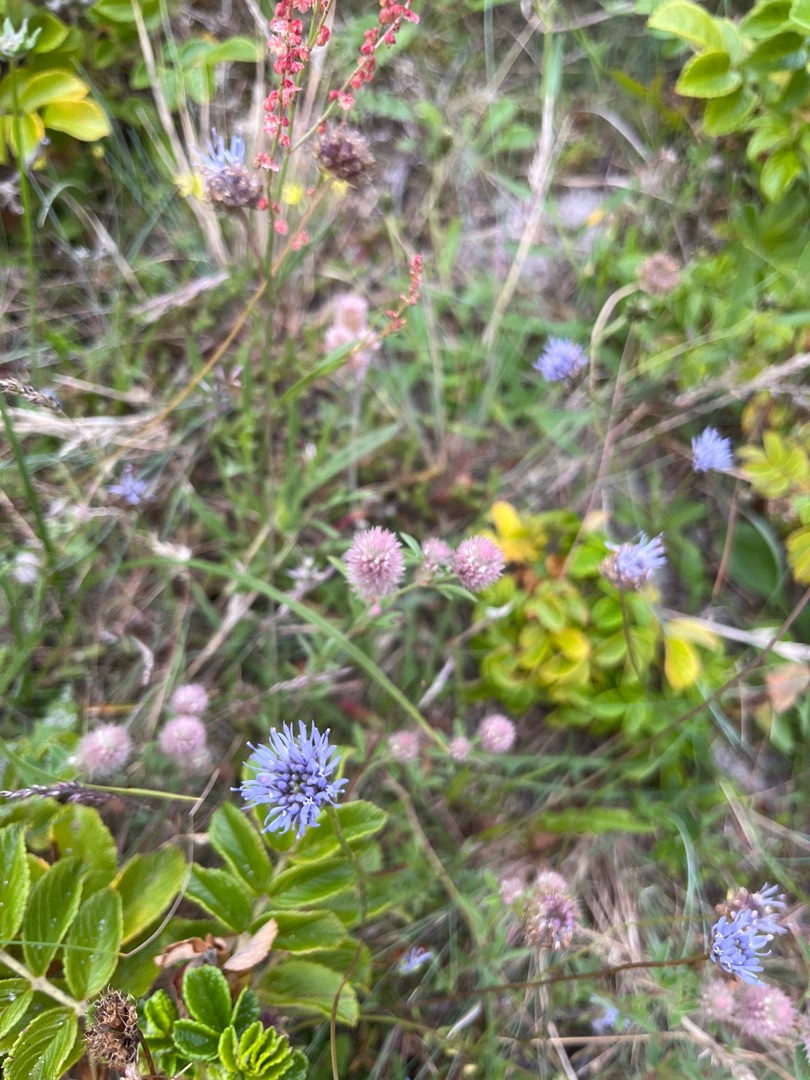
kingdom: Plantae
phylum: Tracheophyta
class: Magnoliopsida
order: Asterales
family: Campanulaceae
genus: Jasione
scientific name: Jasione montana
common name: Blåmunke
